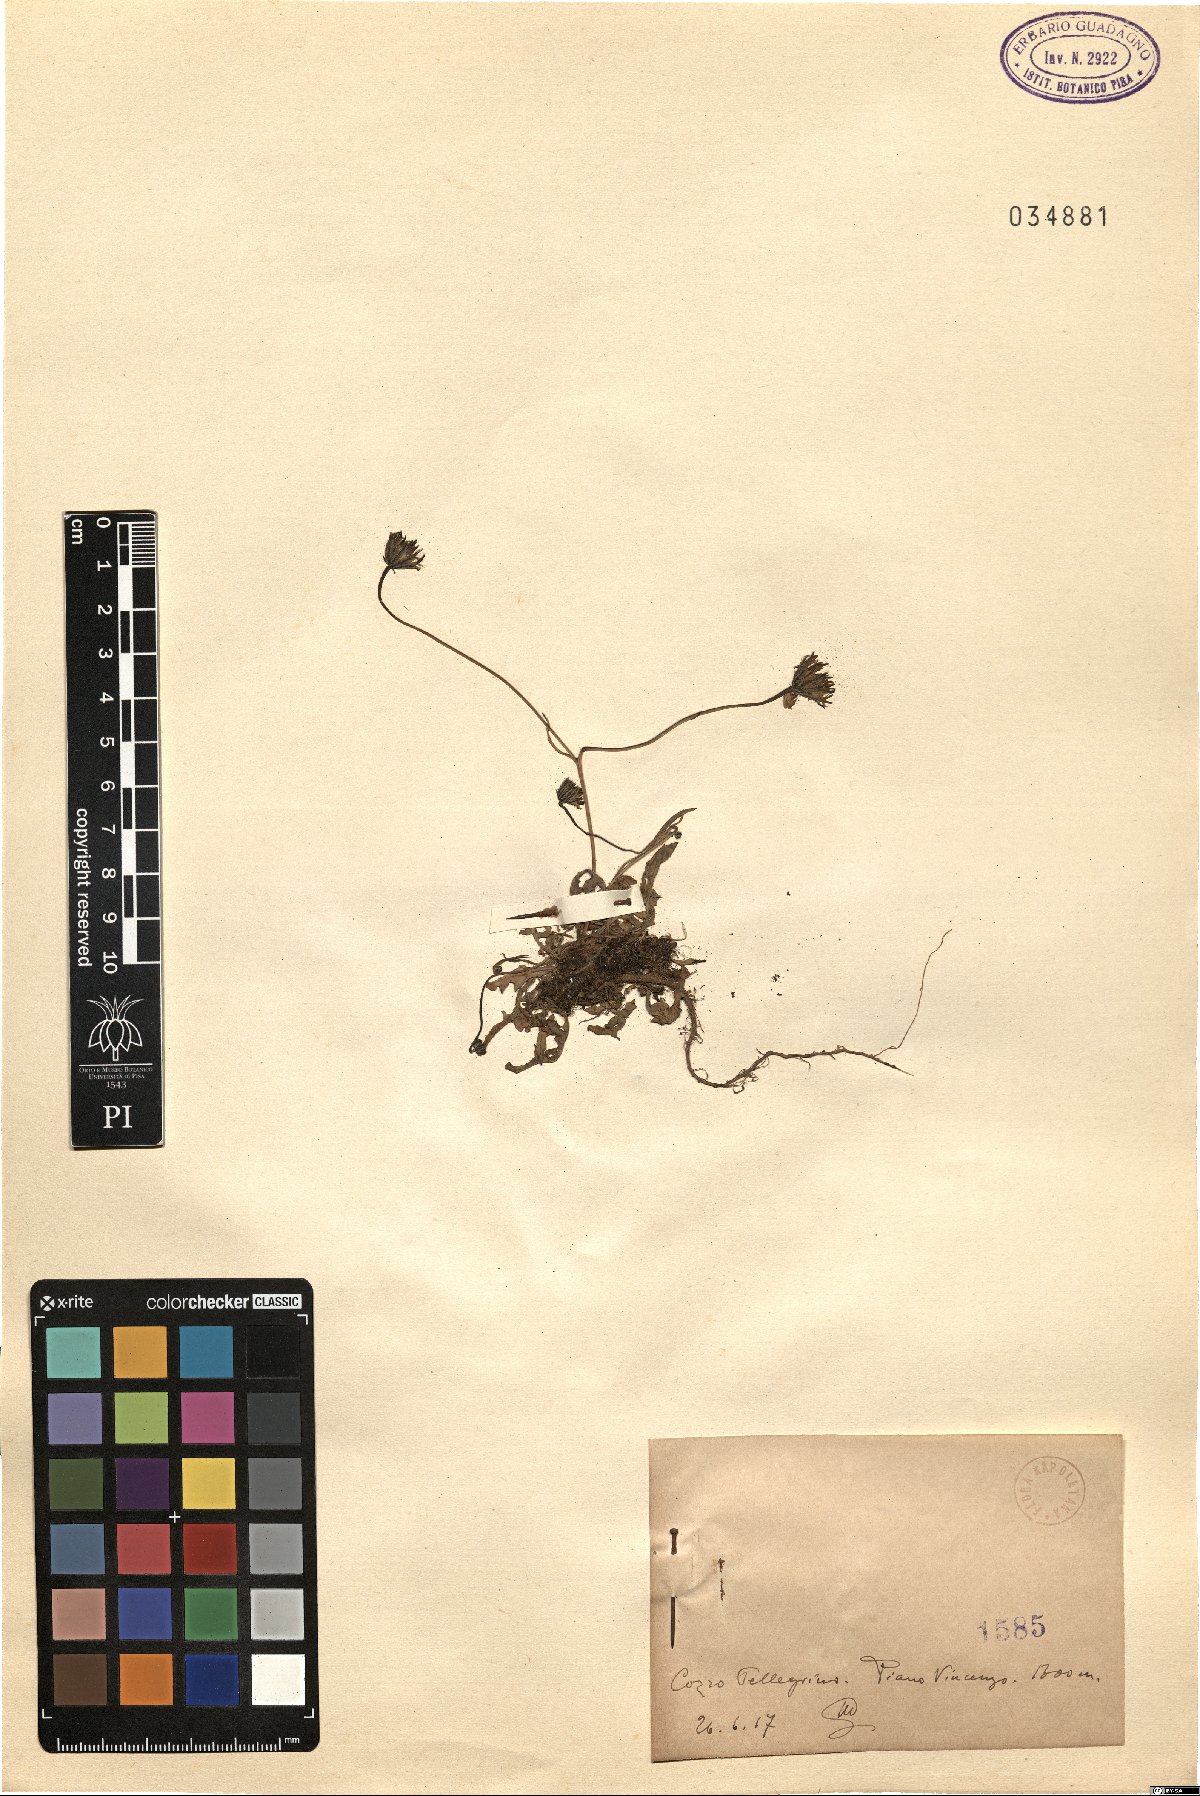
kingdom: Plantae
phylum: Tracheophyta
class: Magnoliopsida
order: Asterales
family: Asteraceae
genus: Hypochaeris
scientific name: Hypochaeris
